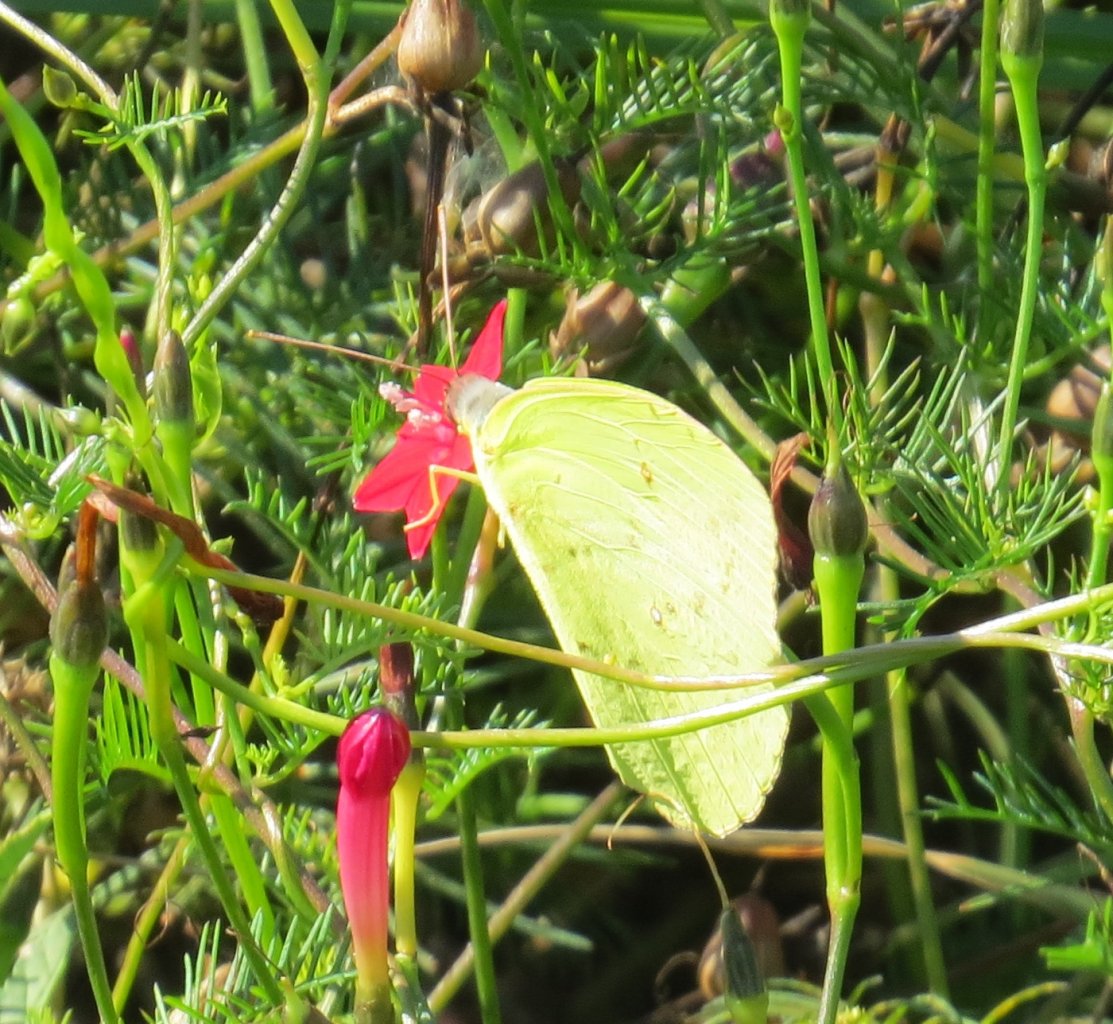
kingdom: Animalia
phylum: Arthropoda
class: Insecta
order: Lepidoptera
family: Pieridae
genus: Phoebis
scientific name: Phoebis sennae
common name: Cloudless Sulphur
